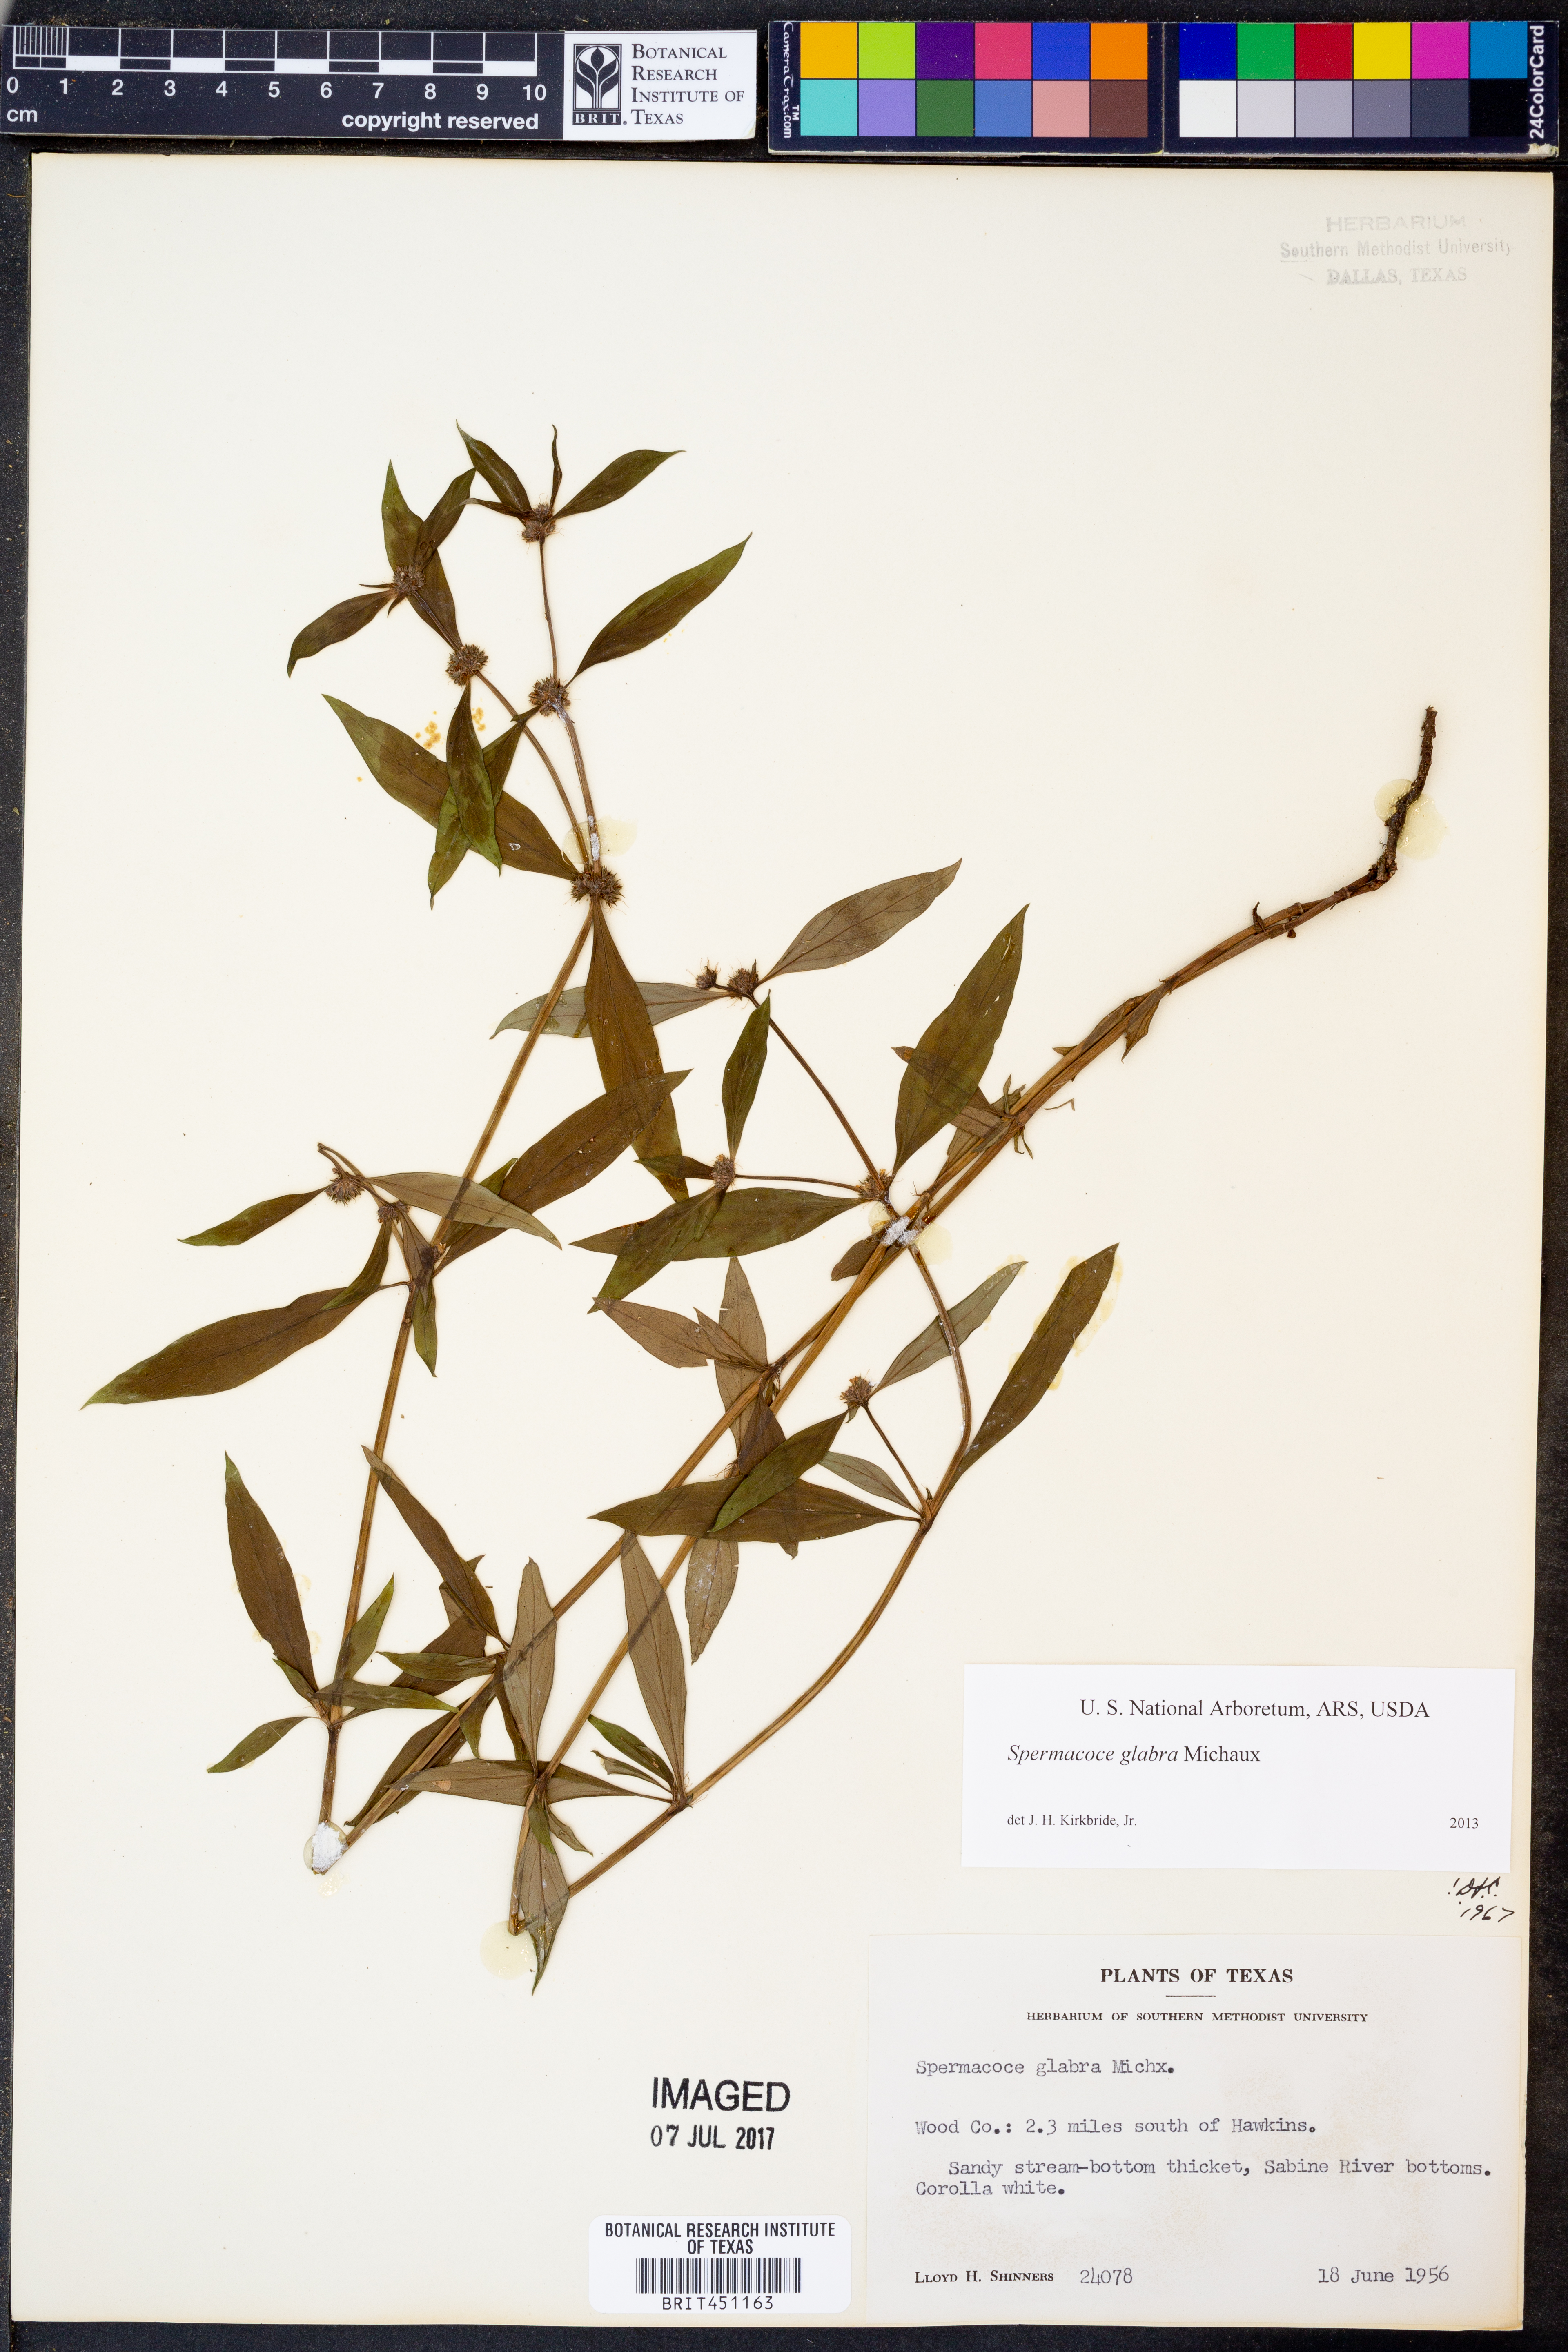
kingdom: Plantae
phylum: Tracheophyta
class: Magnoliopsida
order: Gentianales
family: Rubiaceae
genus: Spermacoce
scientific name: Spermacoce glabra
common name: Smooth buttonweed
